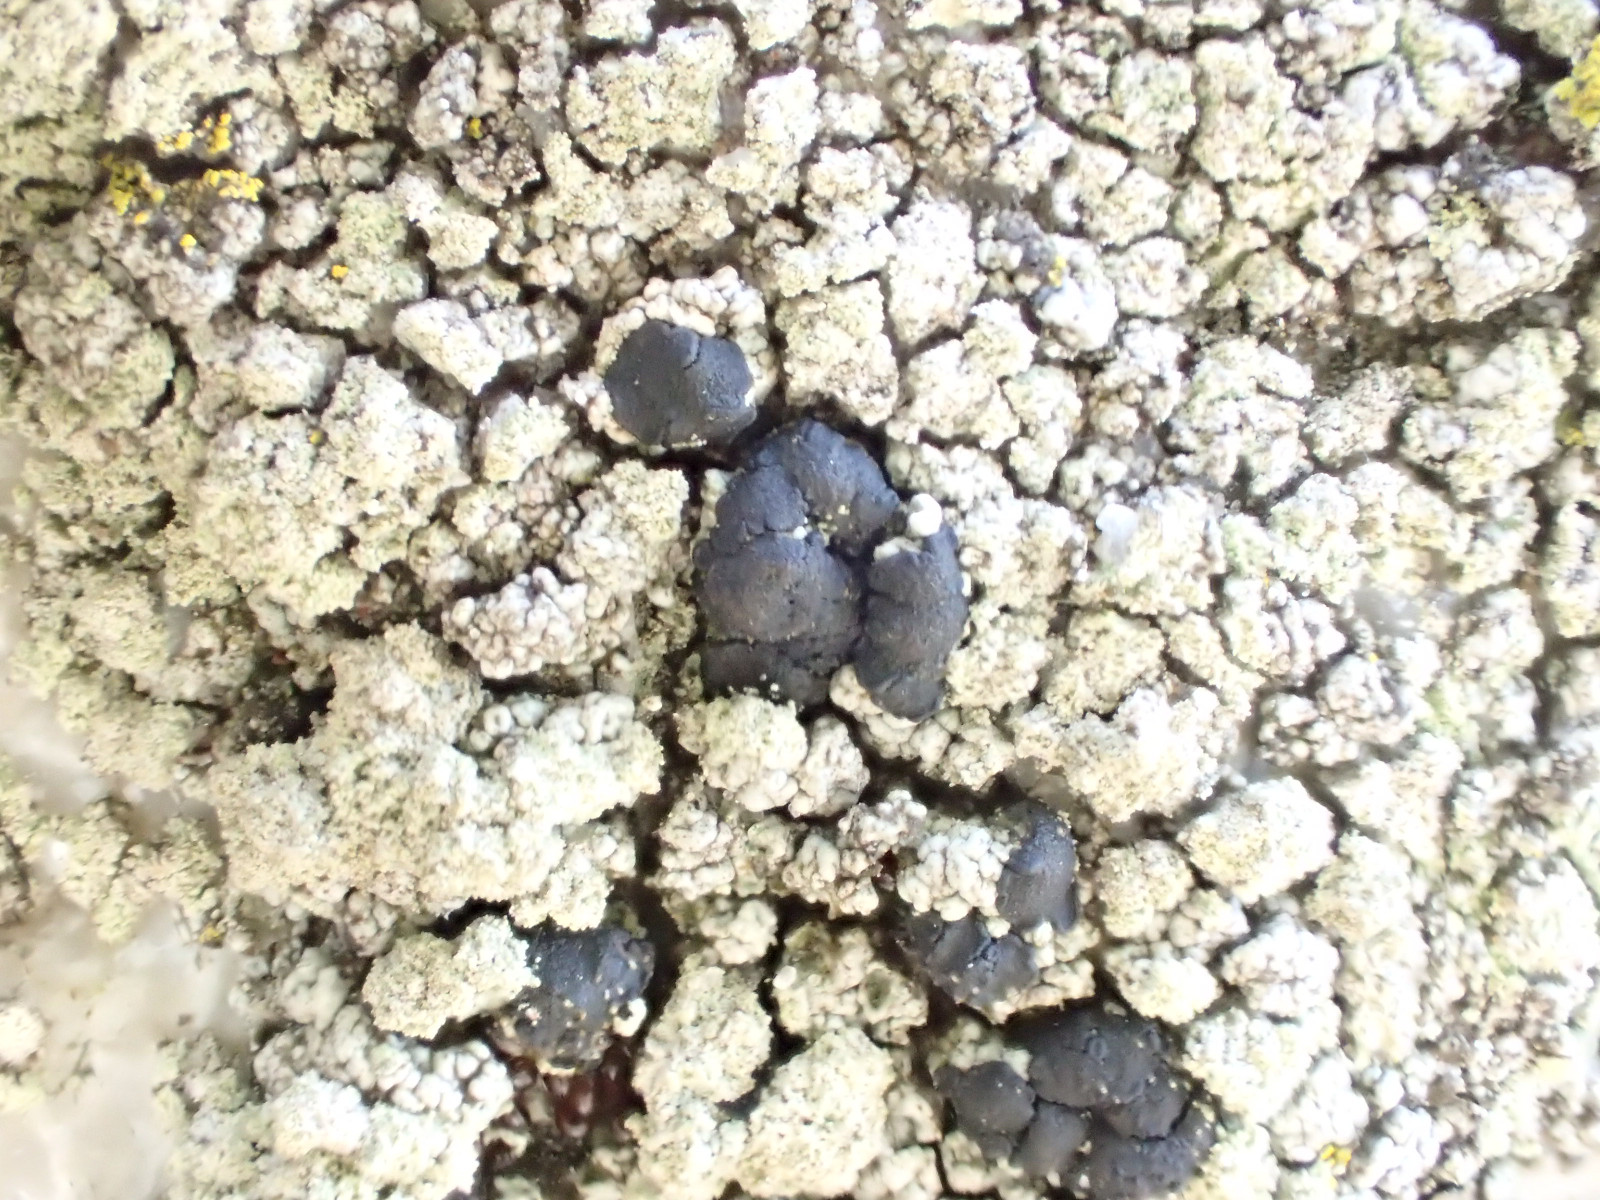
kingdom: Fungi
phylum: Ascomycota
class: Lecanoromycetes
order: Lecanorales
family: Lecanoraceae
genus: Lecidella
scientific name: Lecidella scabra
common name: skurvet skivelav
